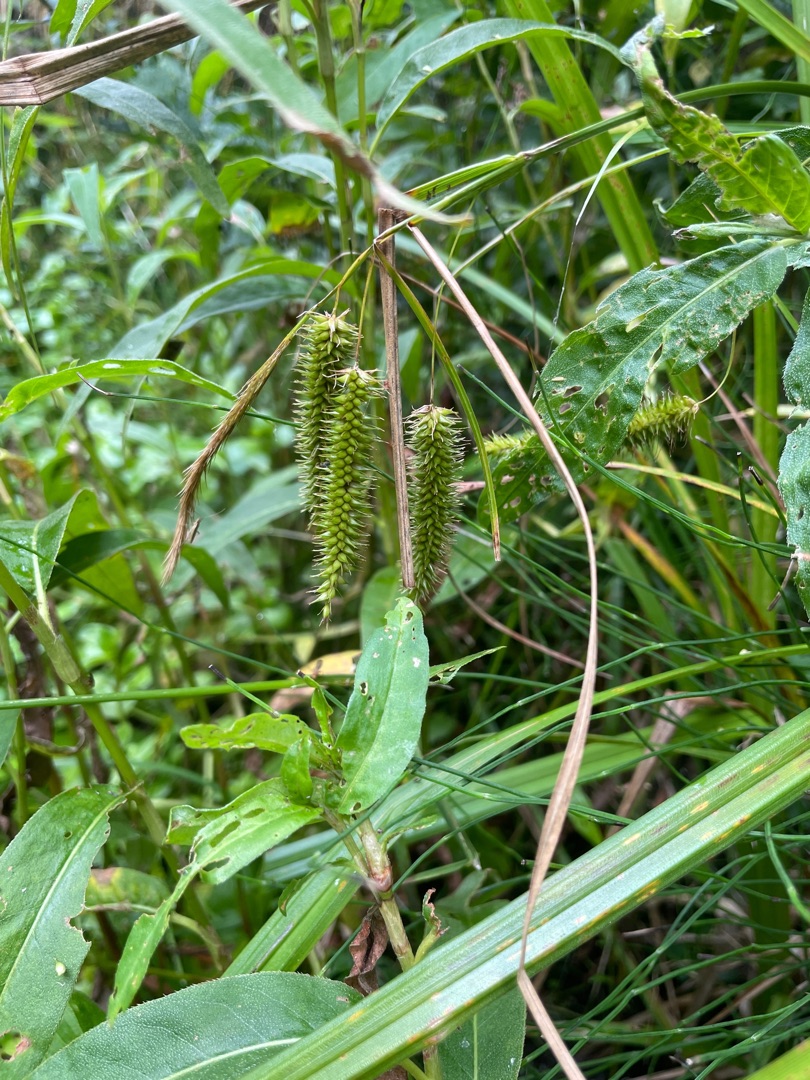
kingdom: Plantae
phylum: Tracheophyta
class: Liliopsida
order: Poales
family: Cyperaceae
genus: Carex
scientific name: Carex pseudocyperus
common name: Knippe-star
